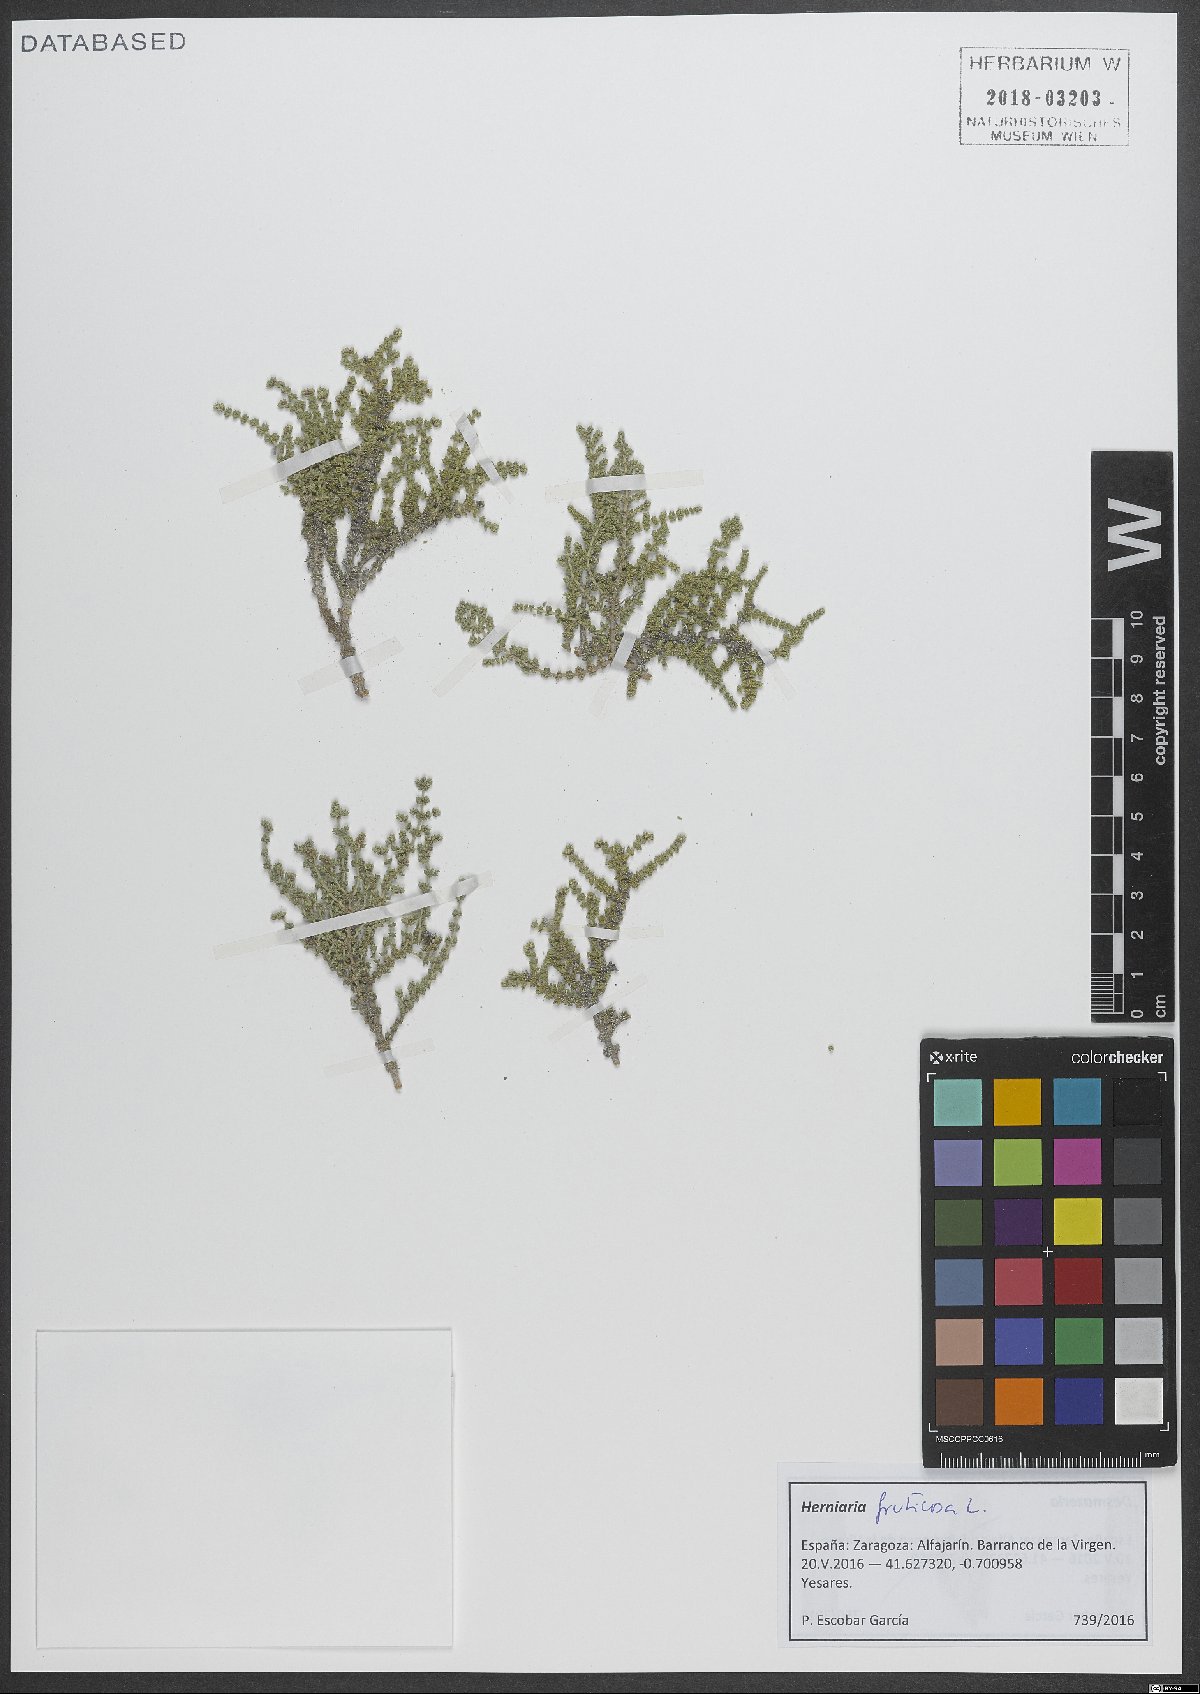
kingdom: Plantae
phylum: Tracheophyta
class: Magnoliopsida
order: Caryophyllales
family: Caryophyllaceae
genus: Herniaria
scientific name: Herniaria fruticosa
